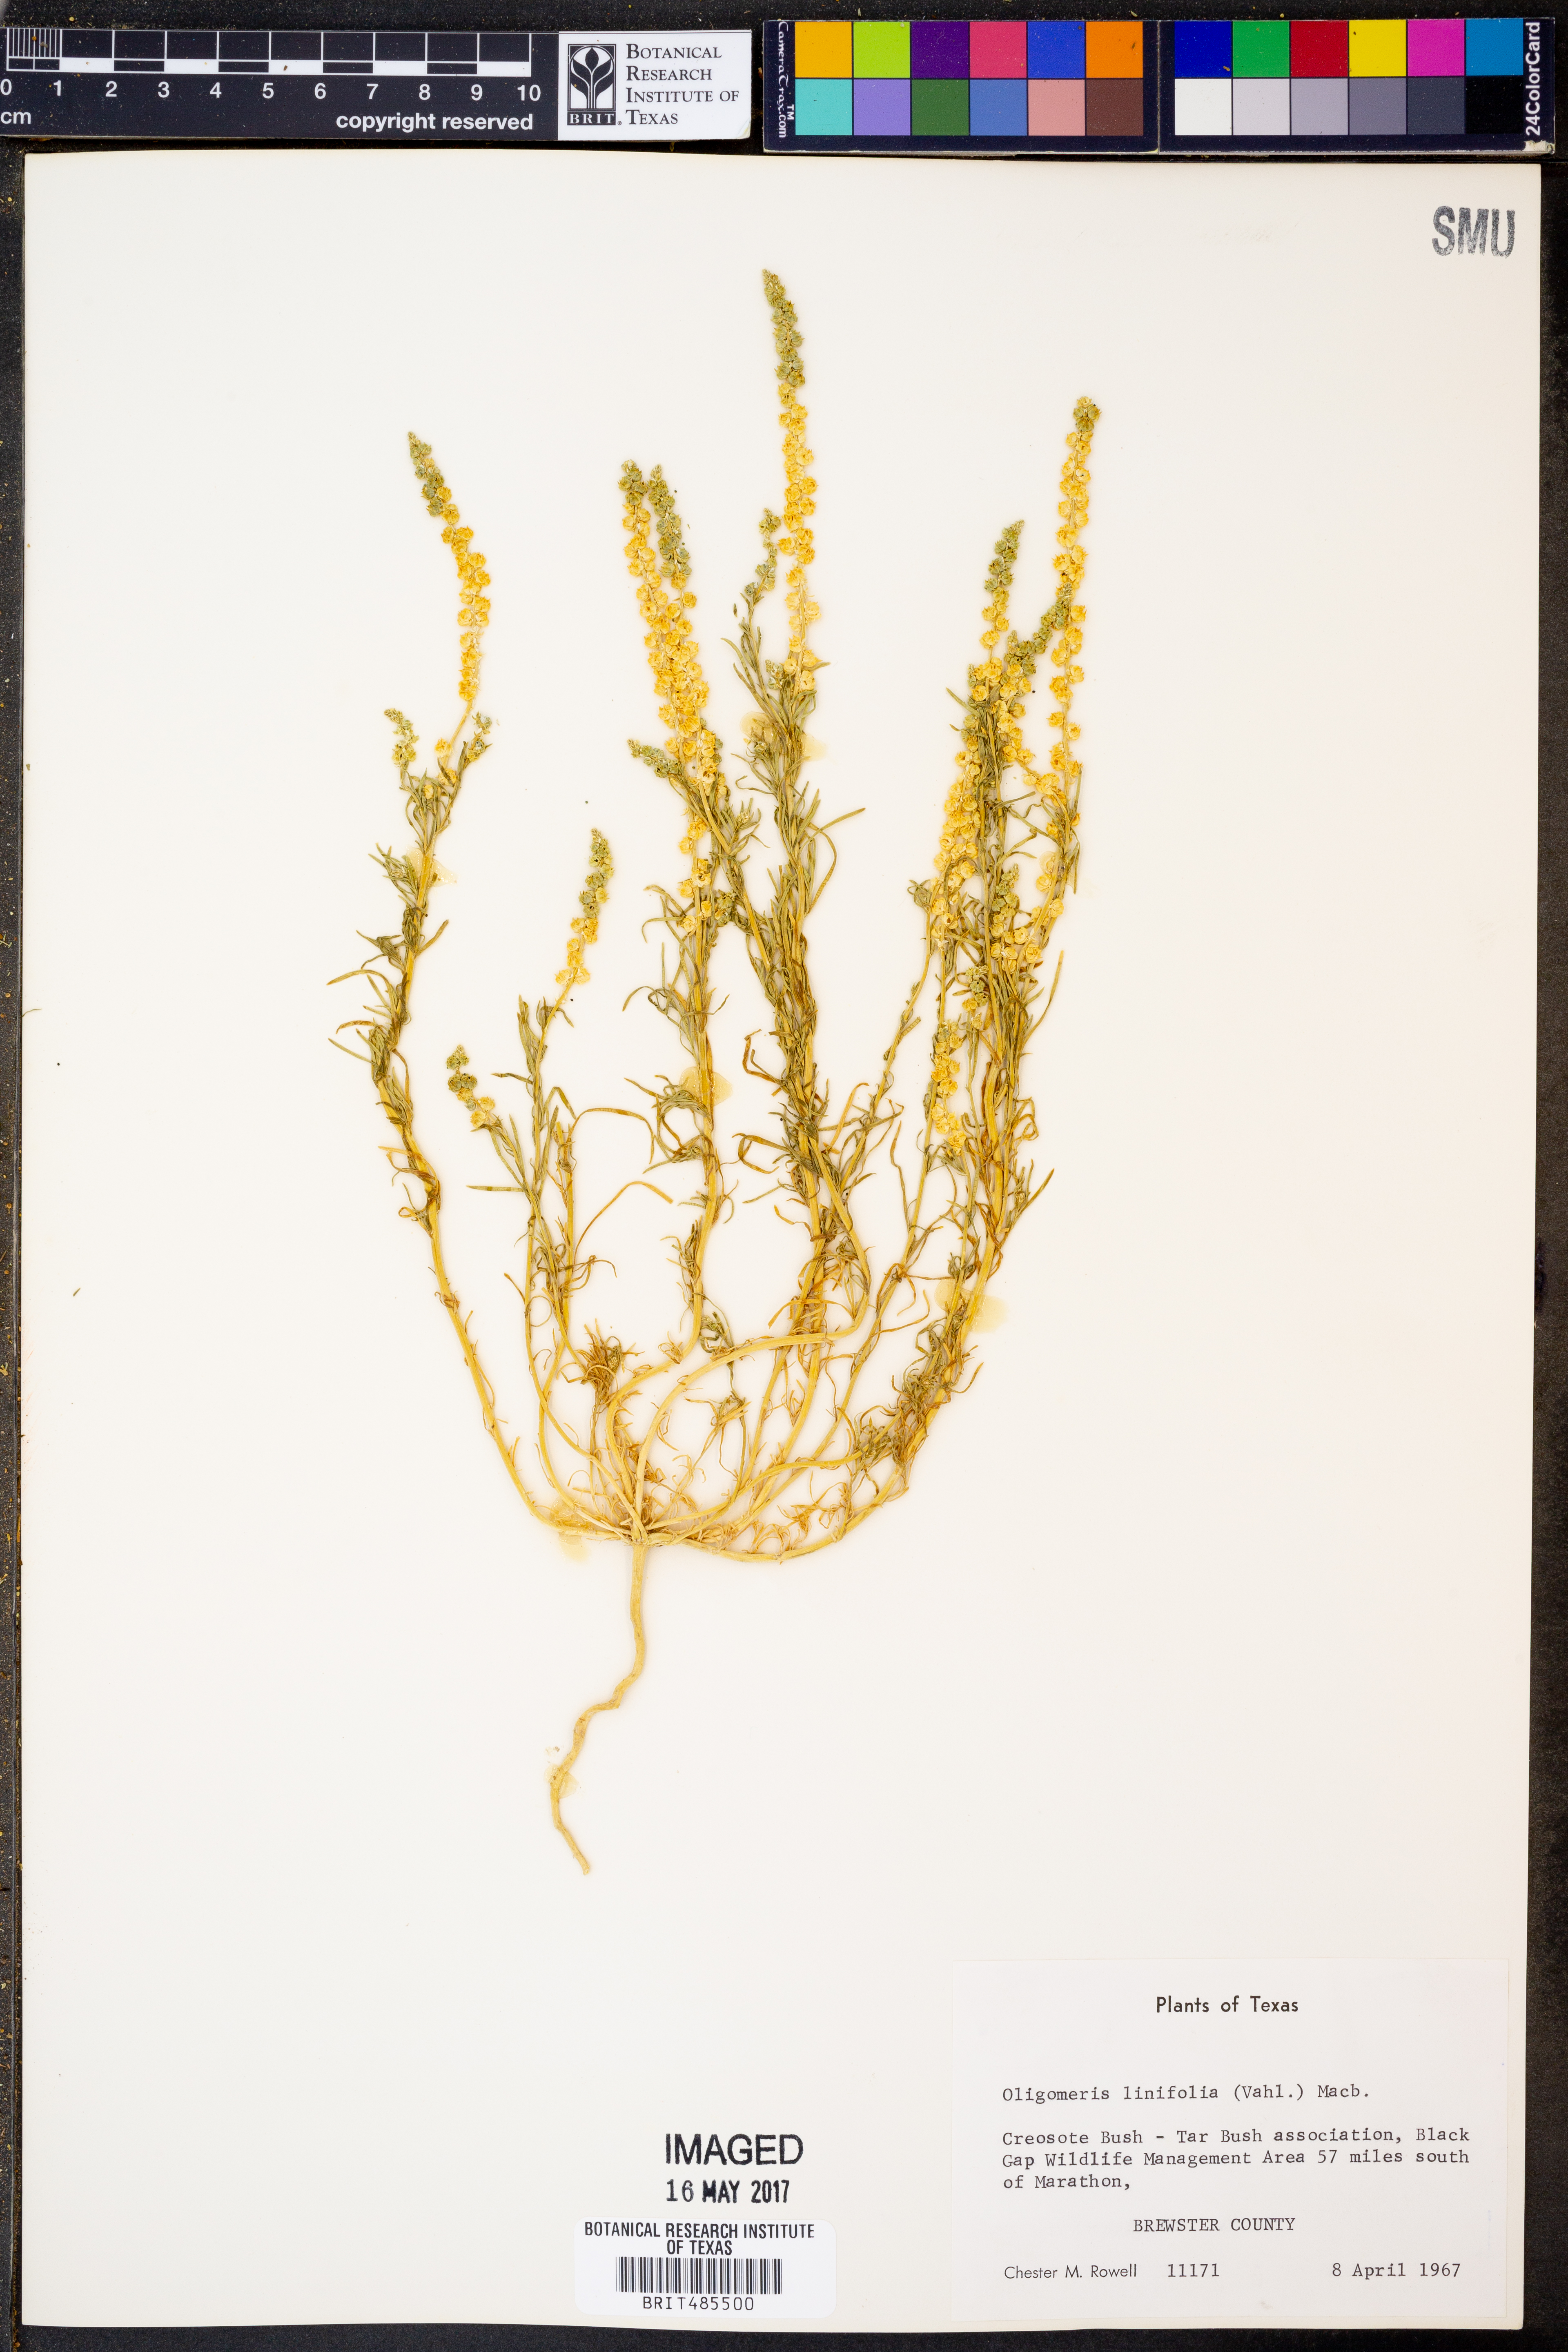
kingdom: Plantae
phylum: Tracheophyta
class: Magnoliopsida
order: Brassicales
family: Resedaceae
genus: Oligomeris
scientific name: Oligomeris linifolia
